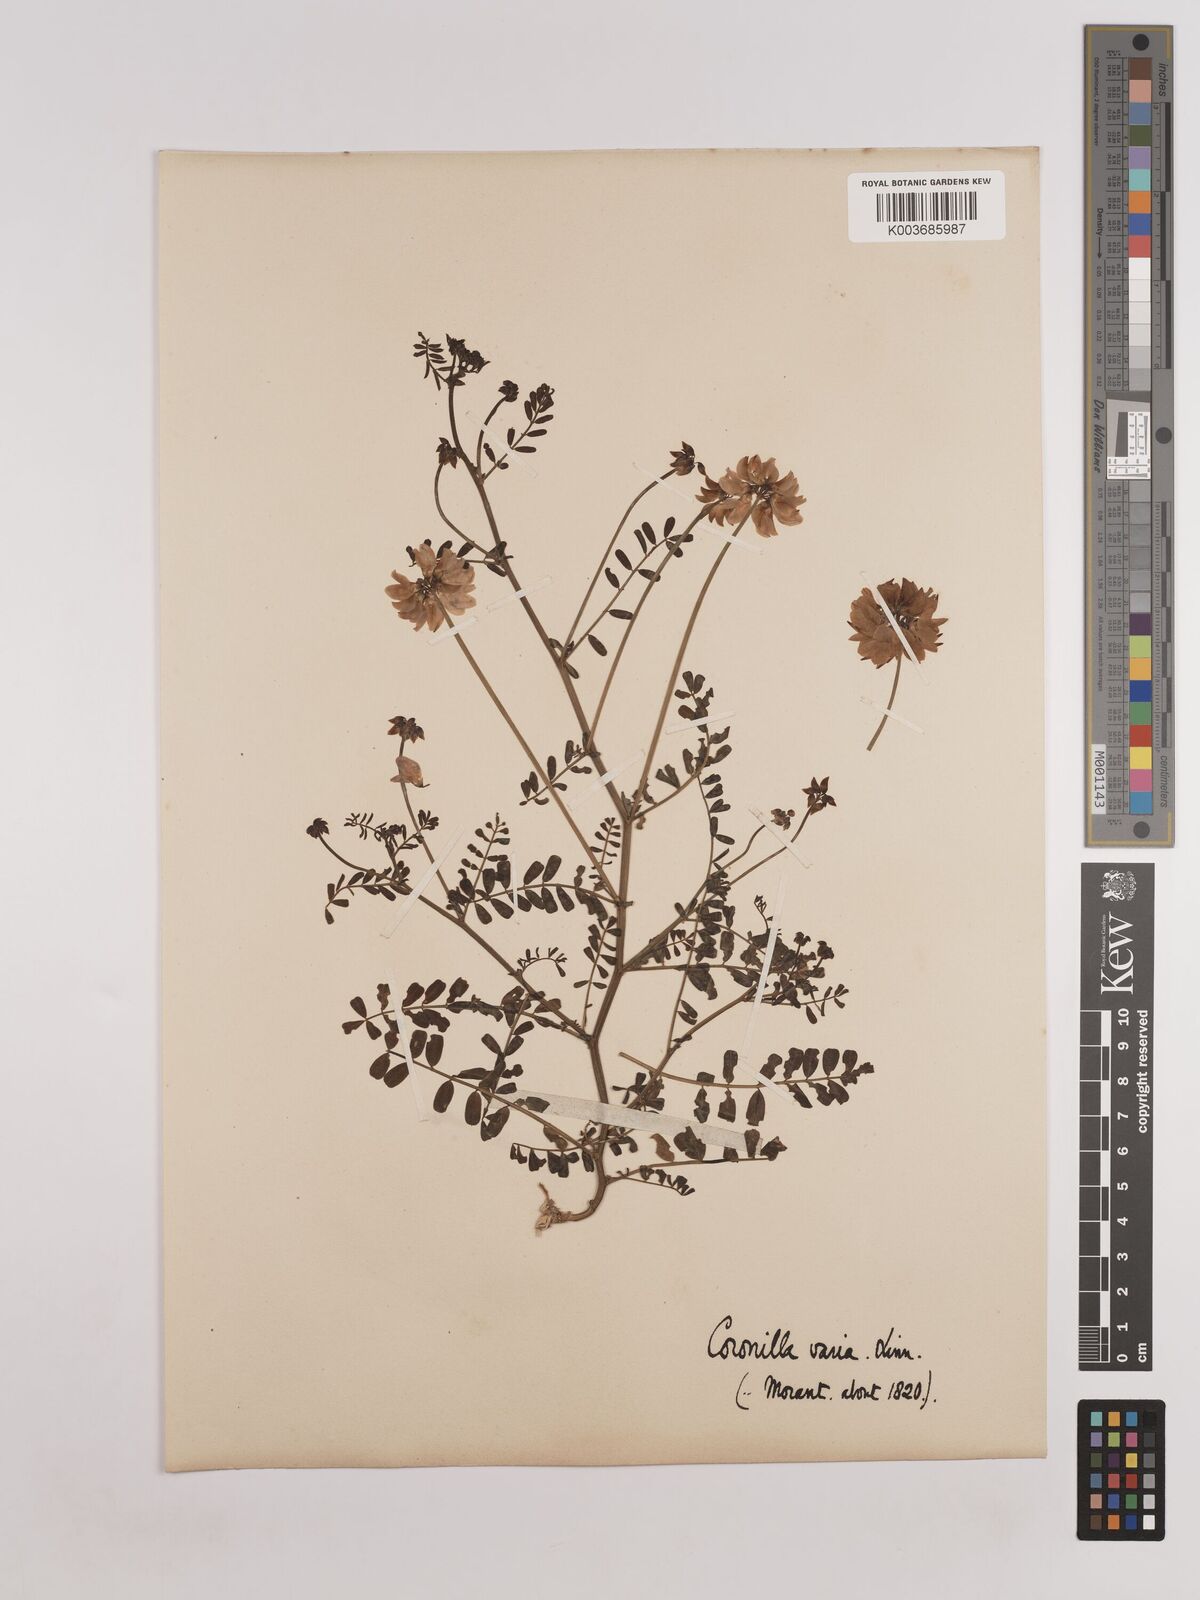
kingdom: Plantae
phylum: Tracheophyta
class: Magnoliopsida
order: Fabales
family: Fabaceae
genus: Coronilla
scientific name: Coronilla varia
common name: Crownvetch
